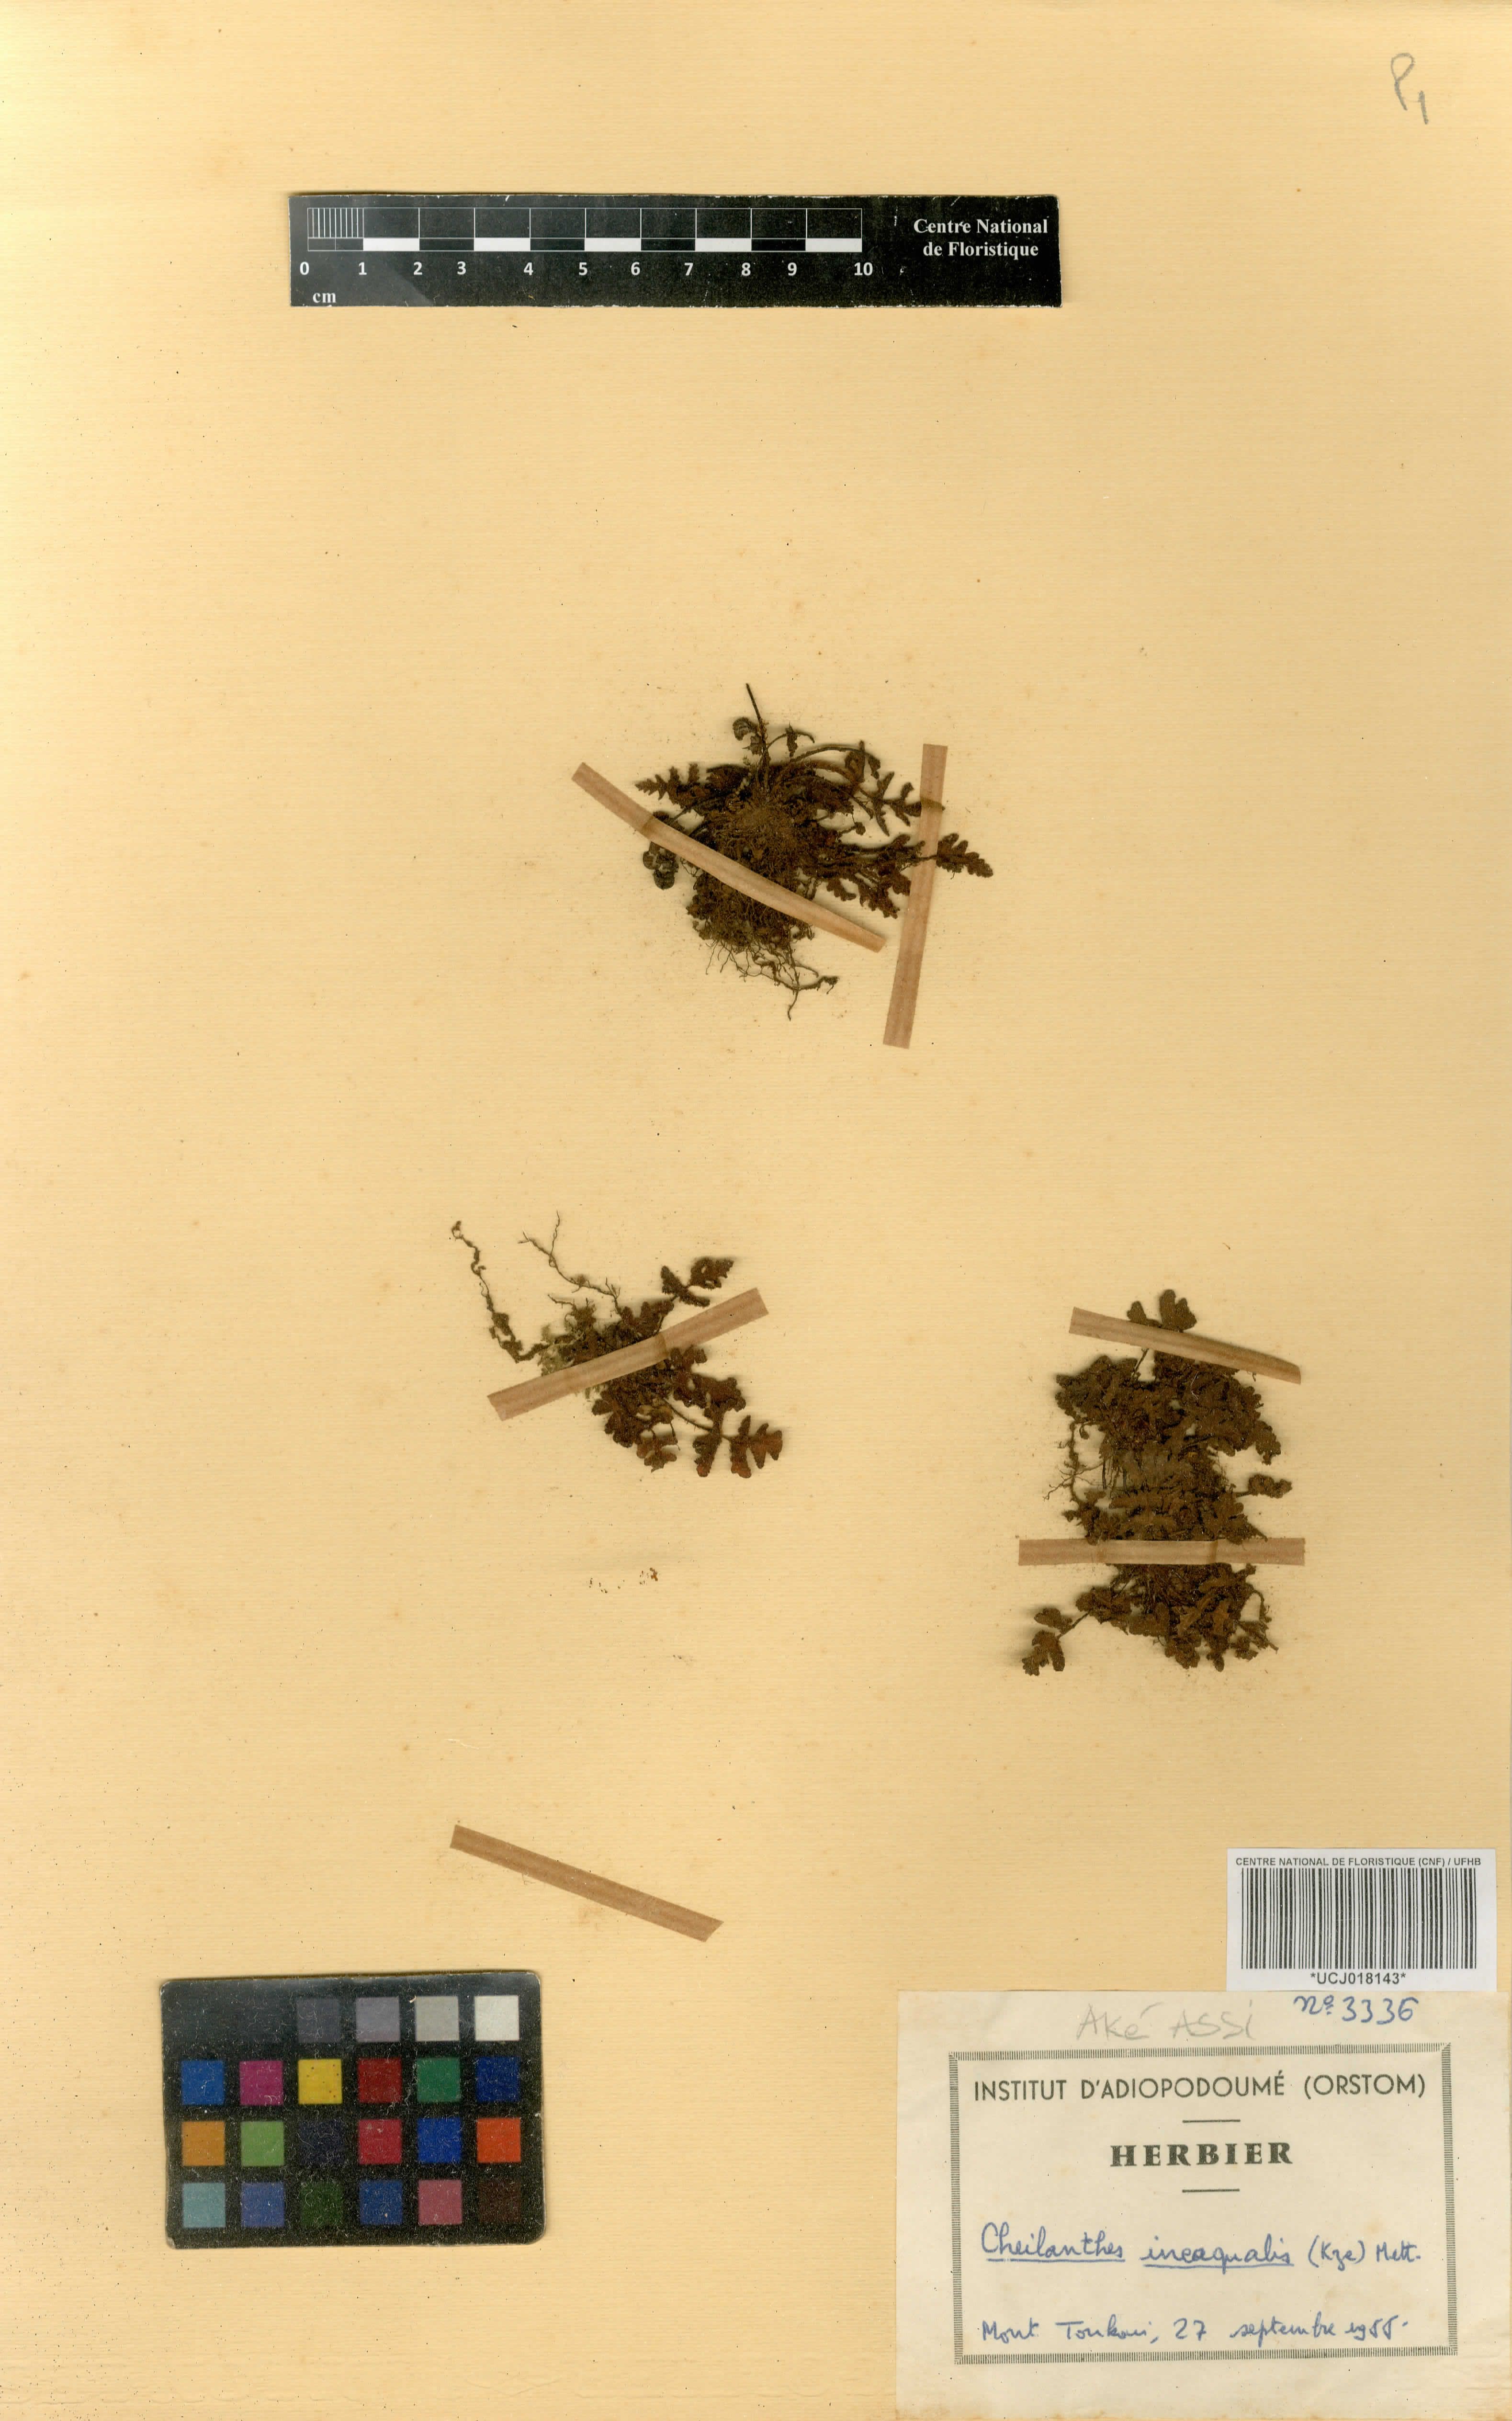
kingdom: Plantae
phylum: Tracheophyta
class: Polypodiopsida
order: Polypodiales
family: Pteridaceae
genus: Notholaena
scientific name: Notholaena ineaqualis
